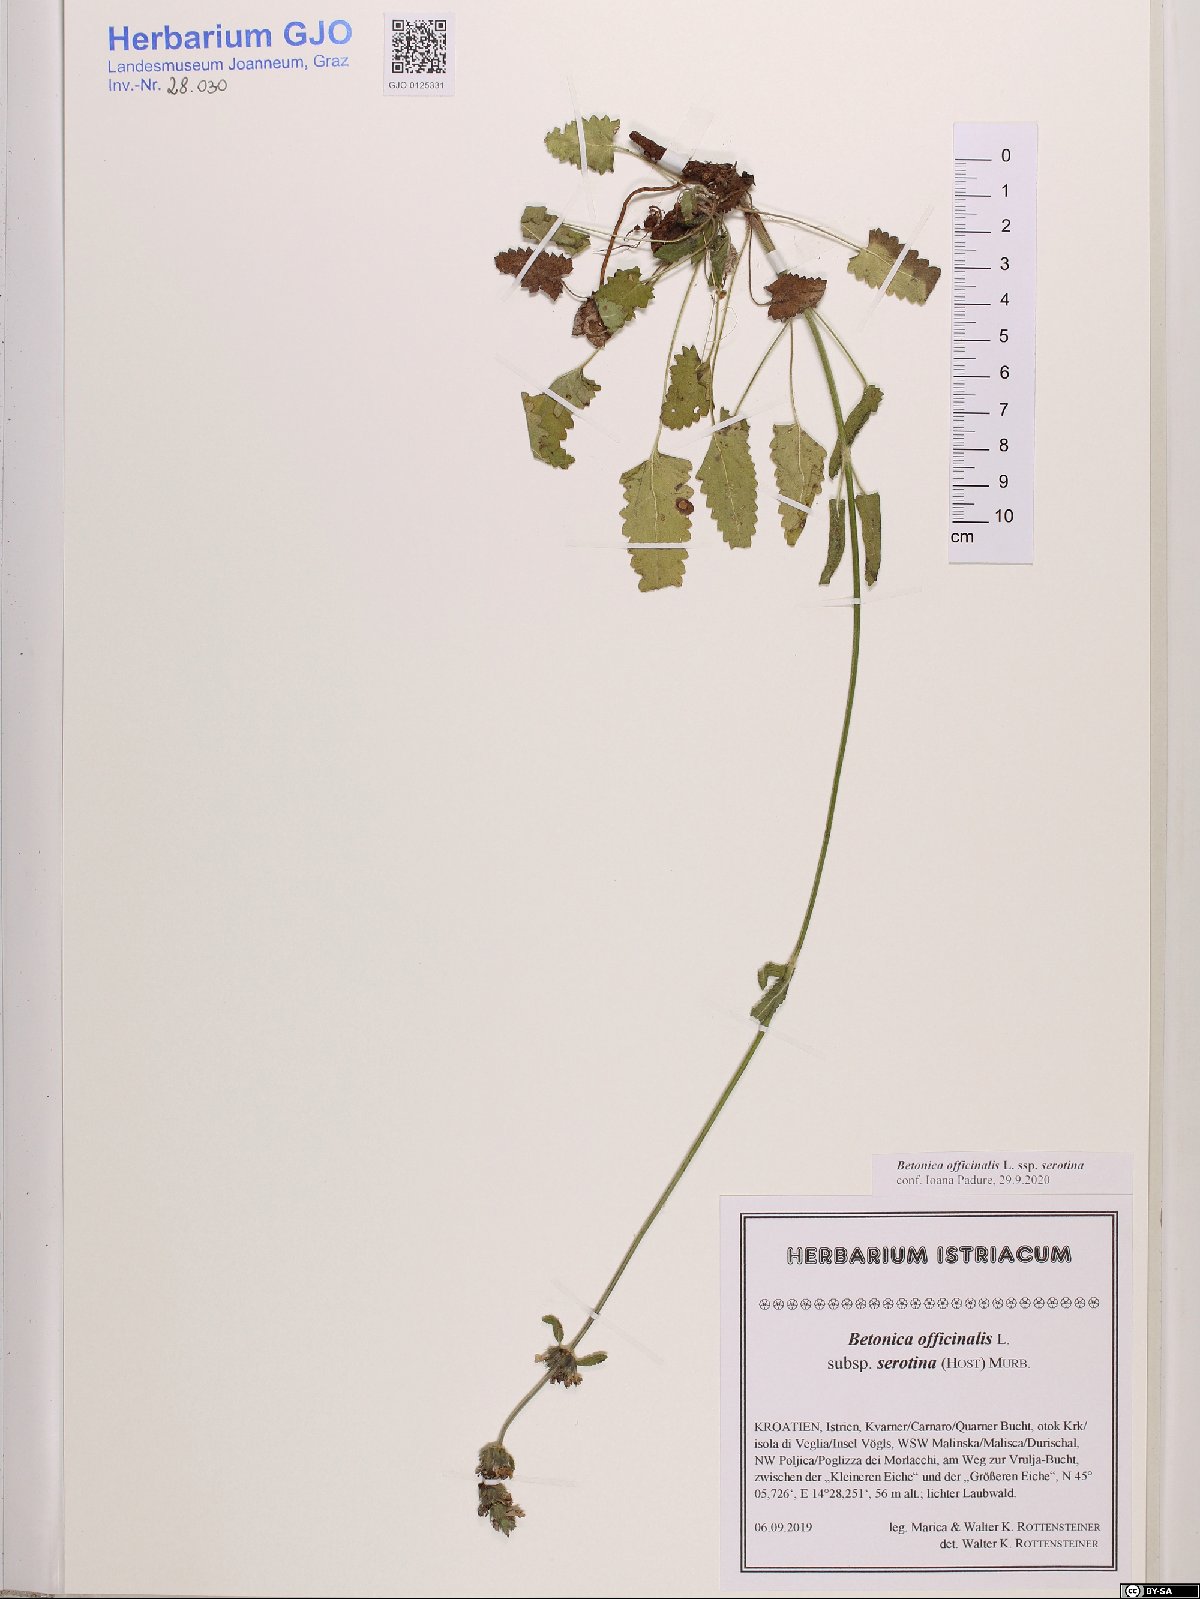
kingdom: Plantae
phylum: Tracheophyta
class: Magnoliopsida
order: Lamiales
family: Lamiaceae
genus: Betonica
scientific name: Betonica officinalis
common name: Bishop's-wort
